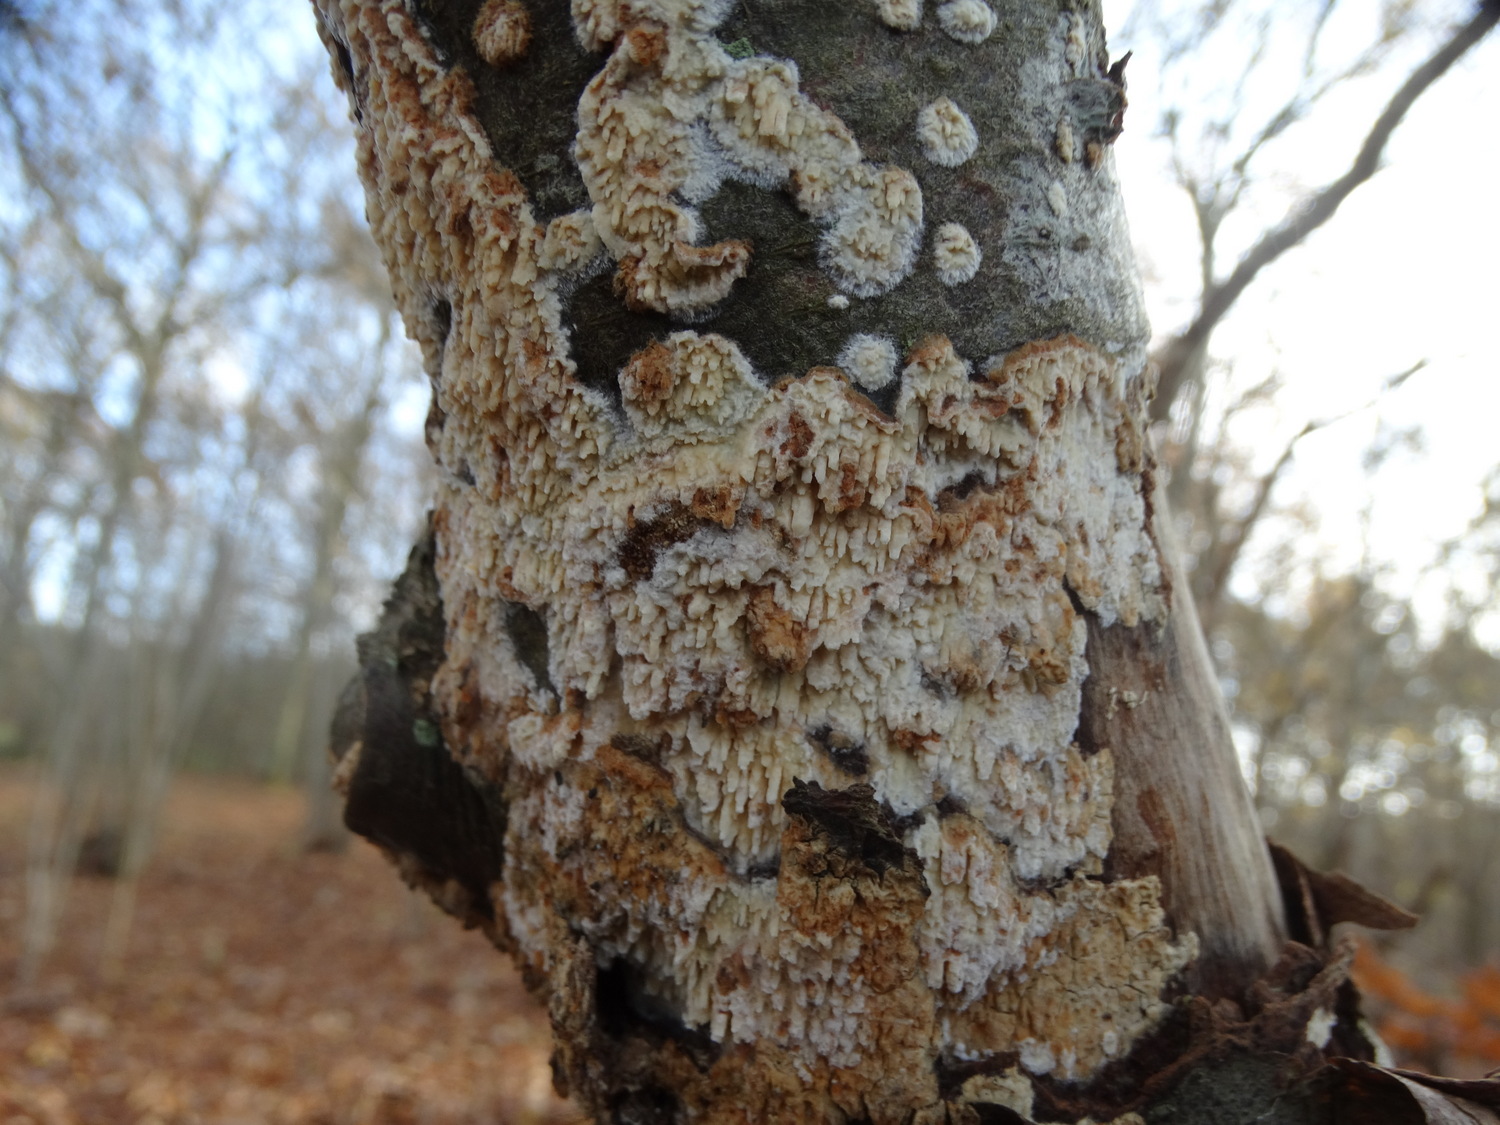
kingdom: Fungi
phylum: Basidiomycota
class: Agaricomycetes
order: Hymenochaetales
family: Schizoporaceae
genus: Xylodon
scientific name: Xylodon radula
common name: grovtandet kalkskind
